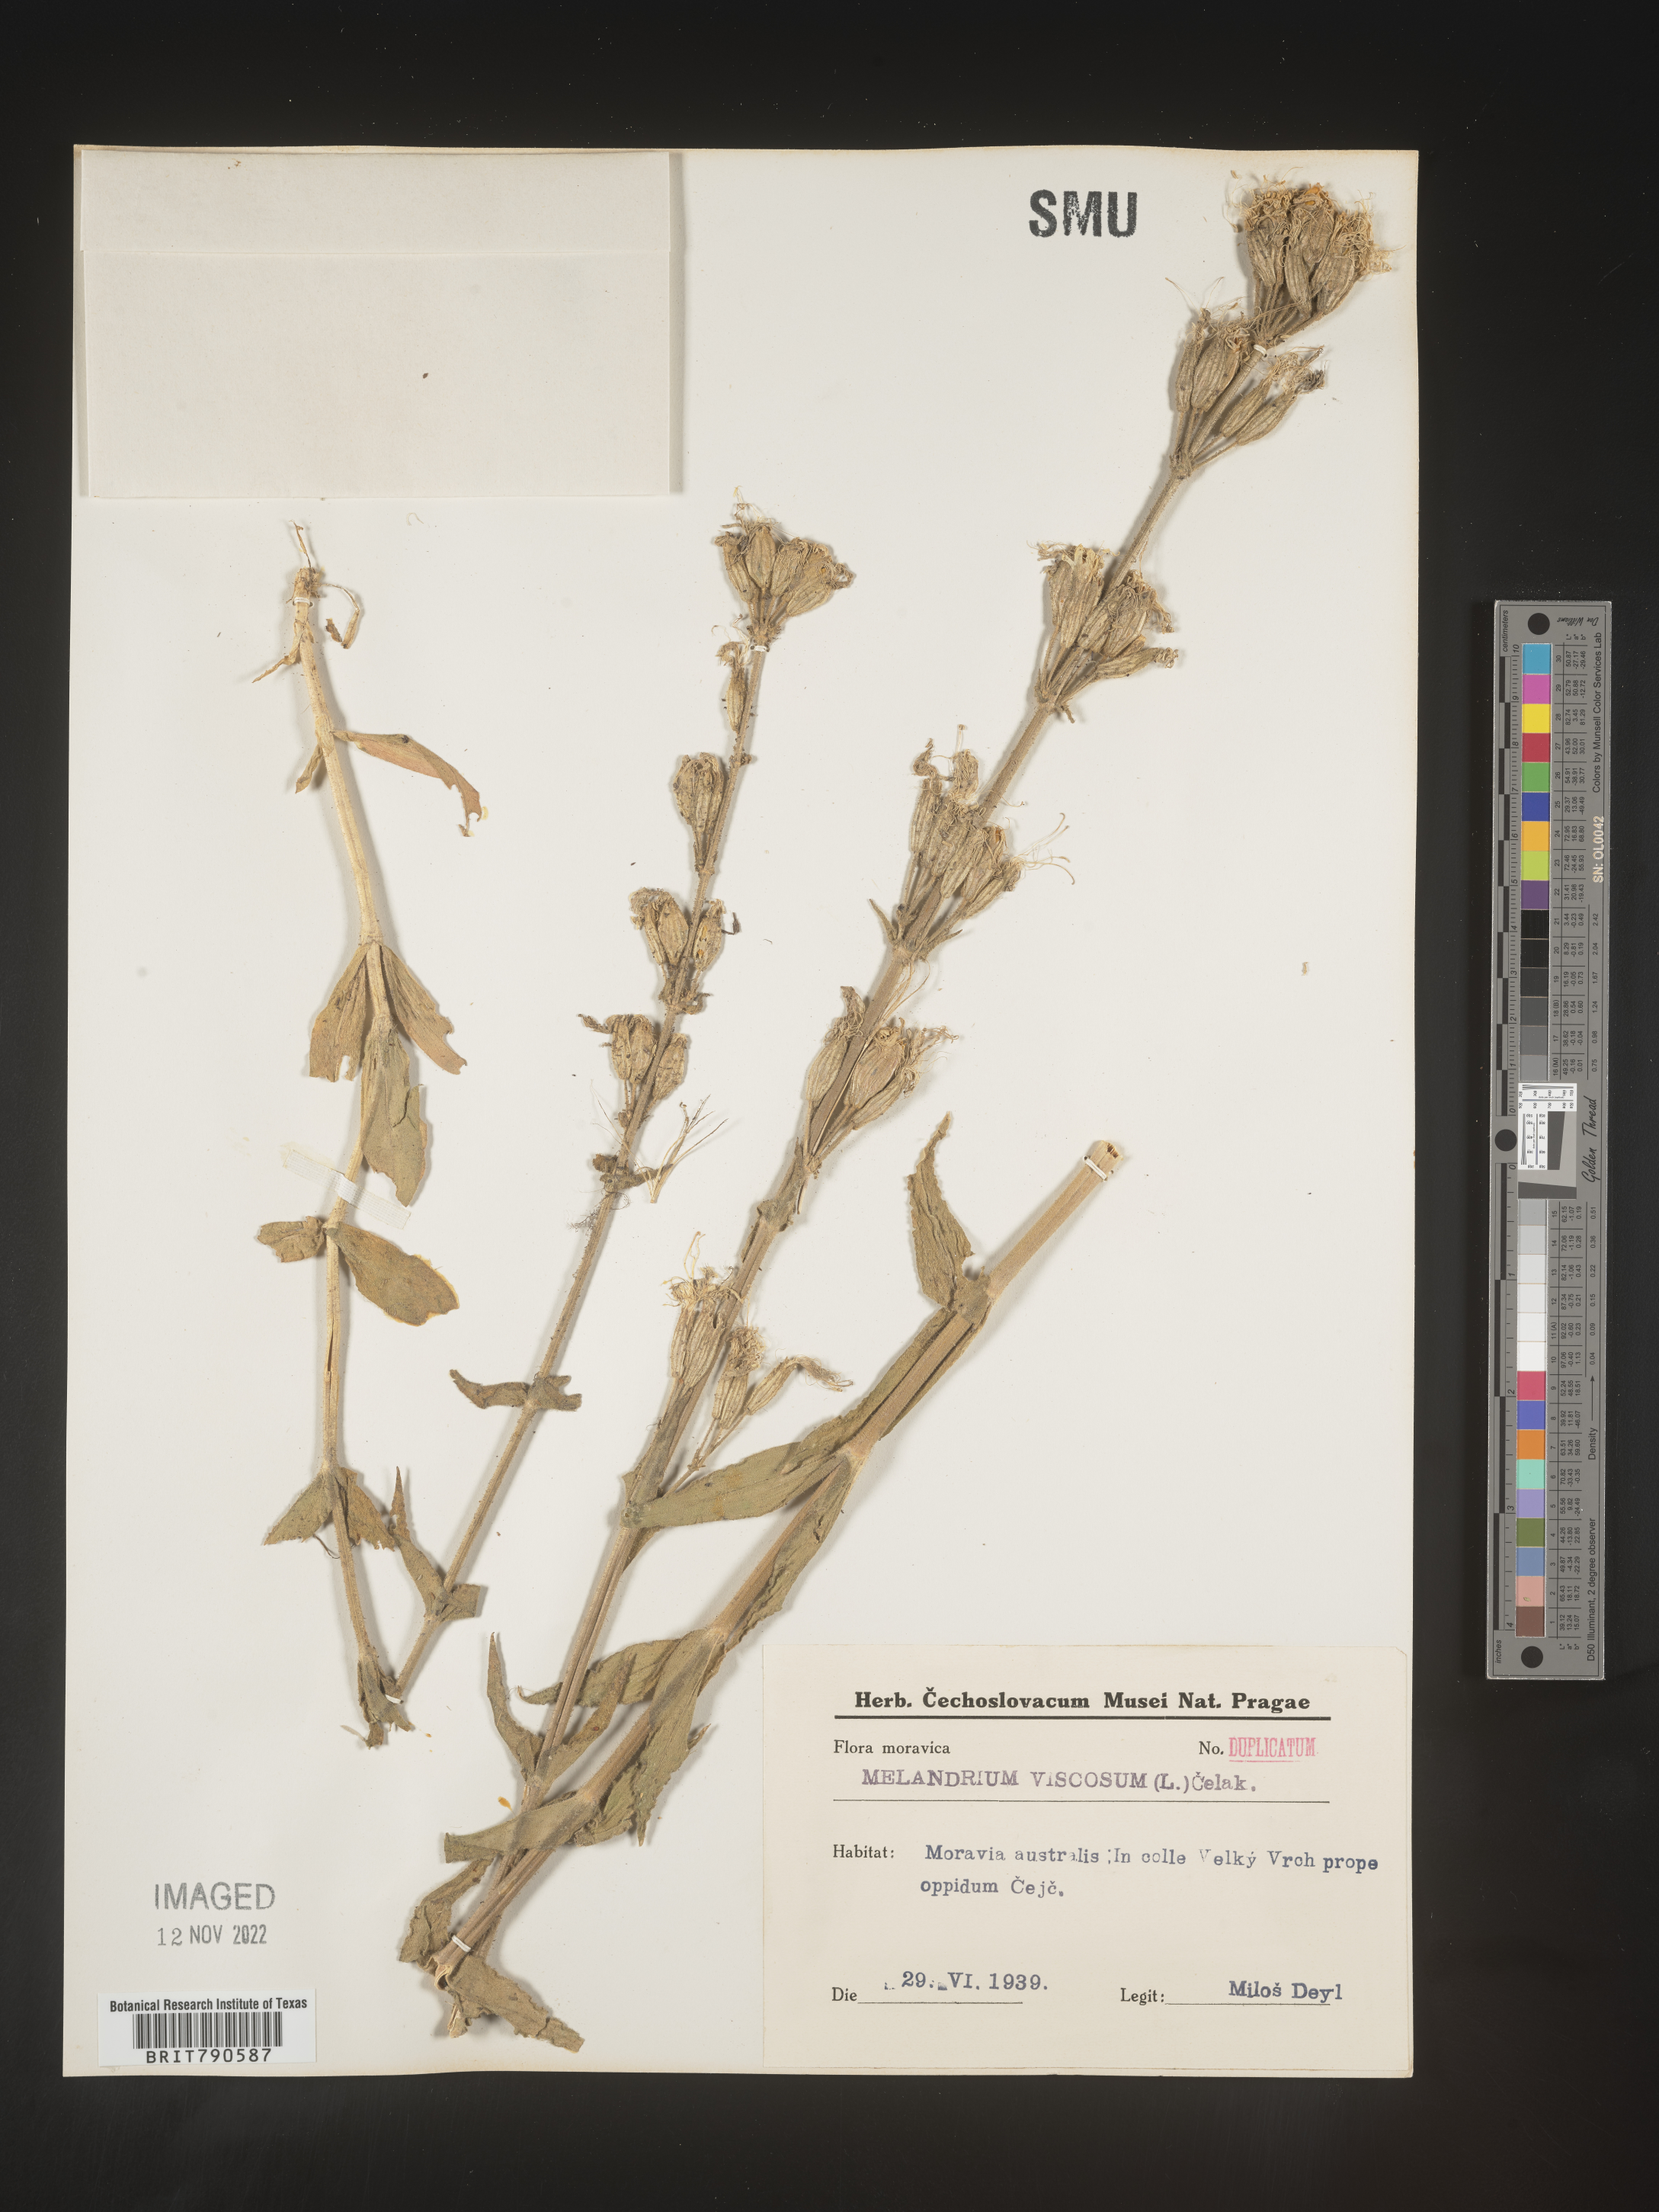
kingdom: Plantae
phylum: Tracheophyta
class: Magnoliopsida
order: Caryophyllales
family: Caryophyllaceae
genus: Silene
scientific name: Silene
